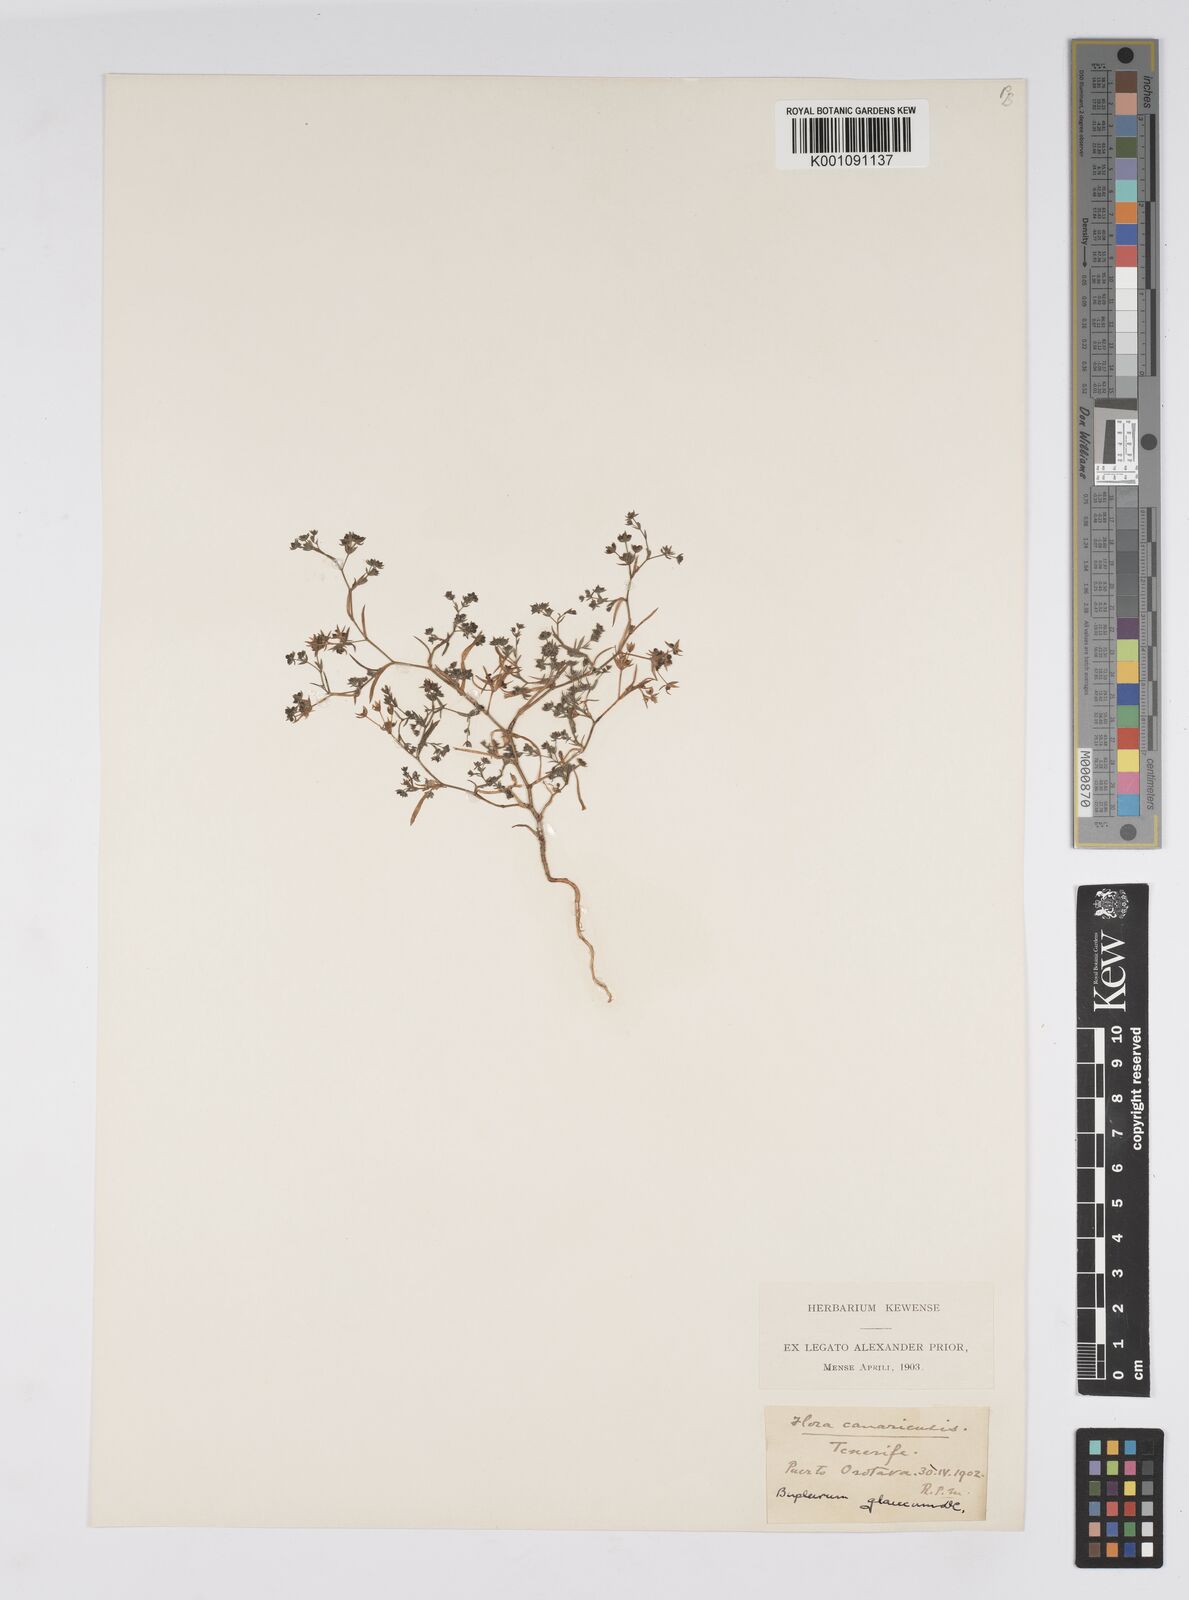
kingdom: Plantae
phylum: Tracheophyta
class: Magnoliopsida
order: Apiales
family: Apiaceae
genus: Bupleurum
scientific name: Bupleurum semicompositum
